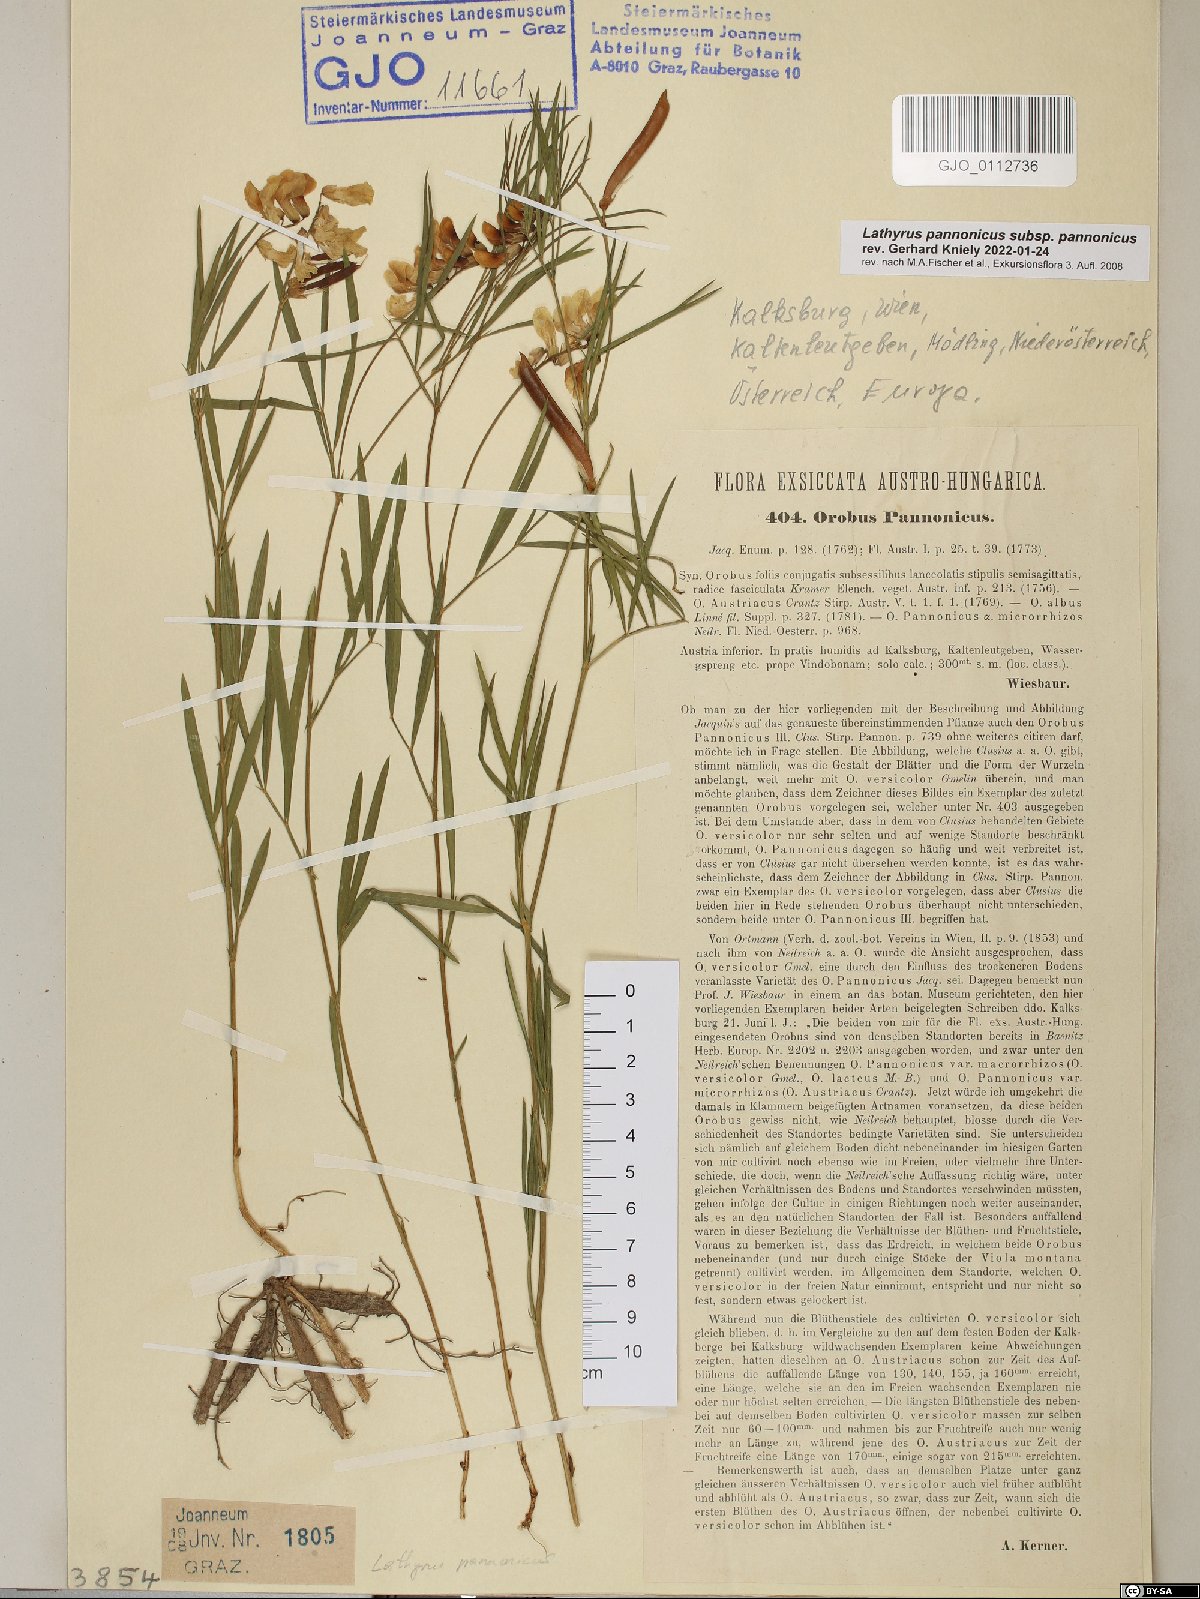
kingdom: Plantae
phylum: Tracheophyta
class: Magnoliopsida
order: Fabales
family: Fabaceae
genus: Lathyrus
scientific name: Lathyrus pannonicus
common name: Pea
